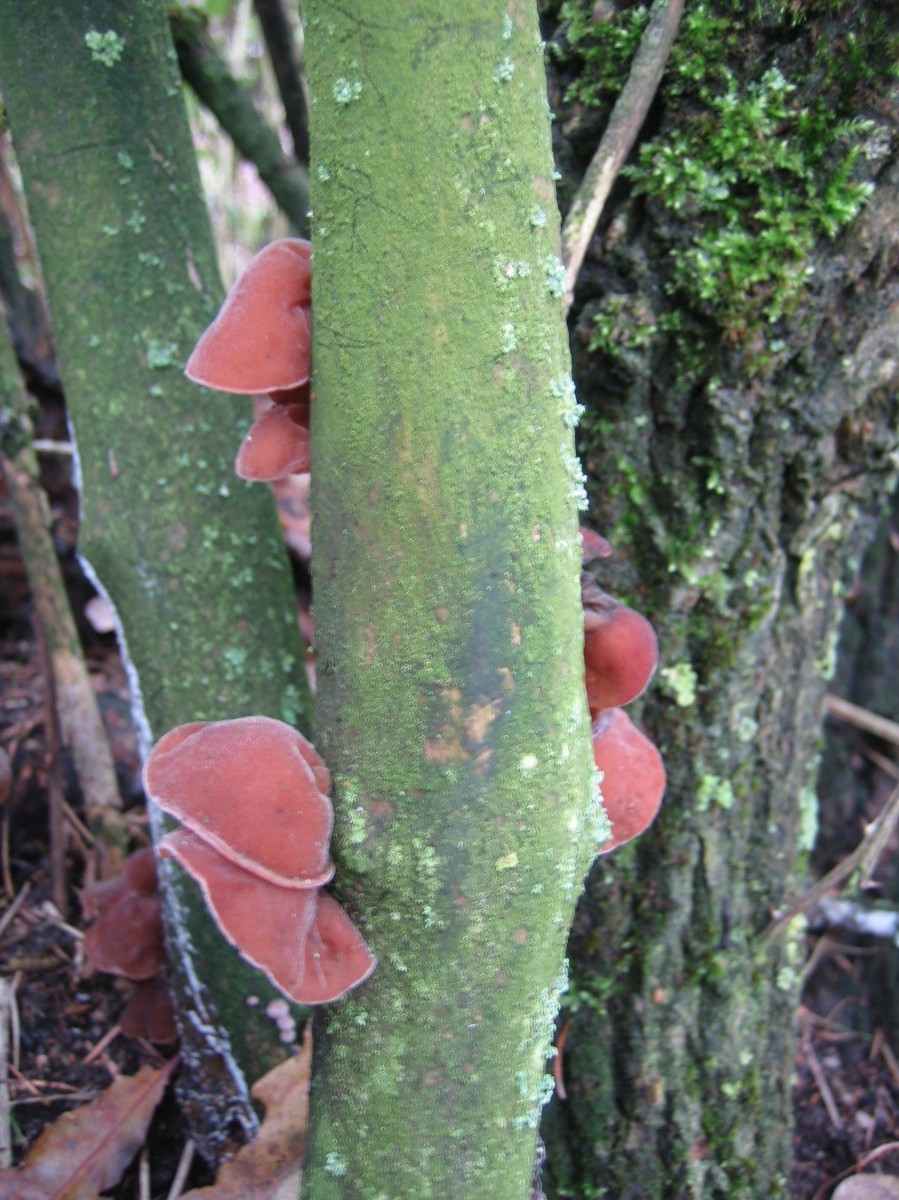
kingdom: Fungi
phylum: Basidiomycota
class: Agaricomycetes
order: Auriculariales
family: Auriculariaceae
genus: Auricularia
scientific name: Auricularia auricula-judae
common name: almindelig judasøre
